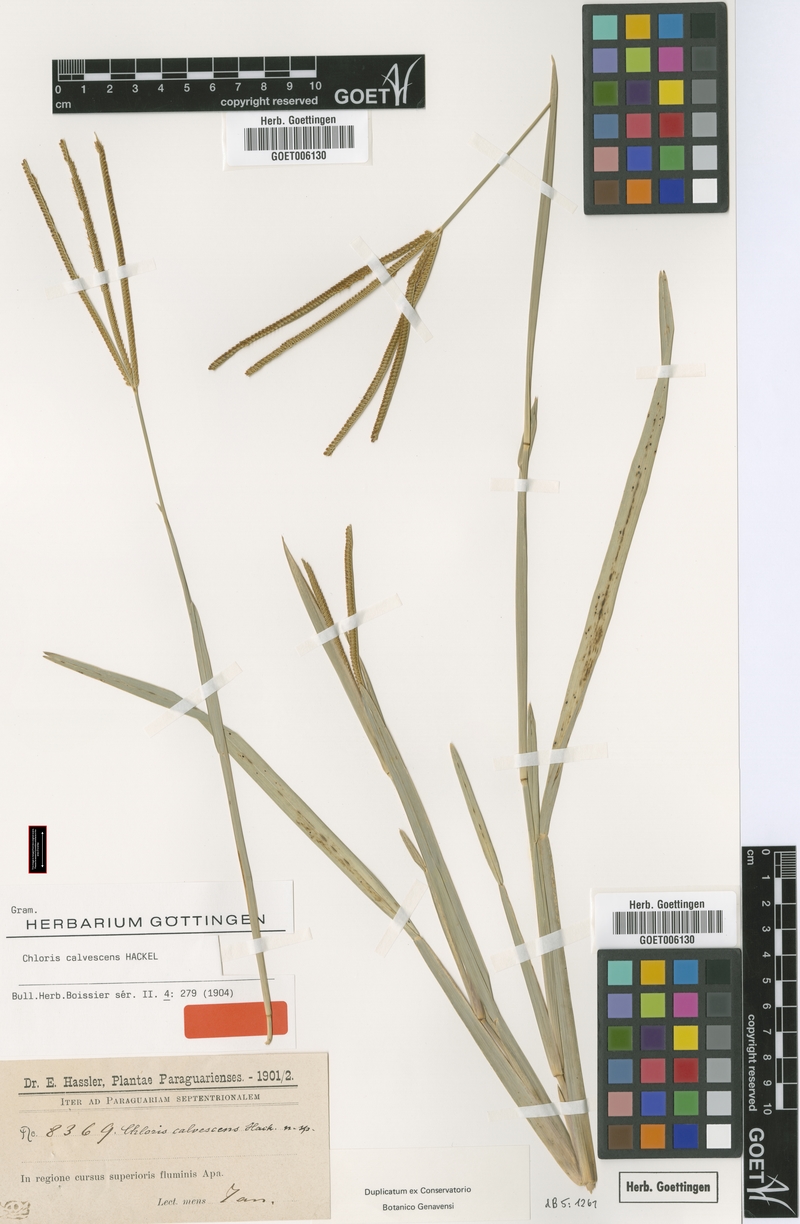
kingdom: Plantae
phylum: Tracheophyta
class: Liliopsida
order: Poales
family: Poaceae
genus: Eustachys
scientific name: Eustachys calvescens
